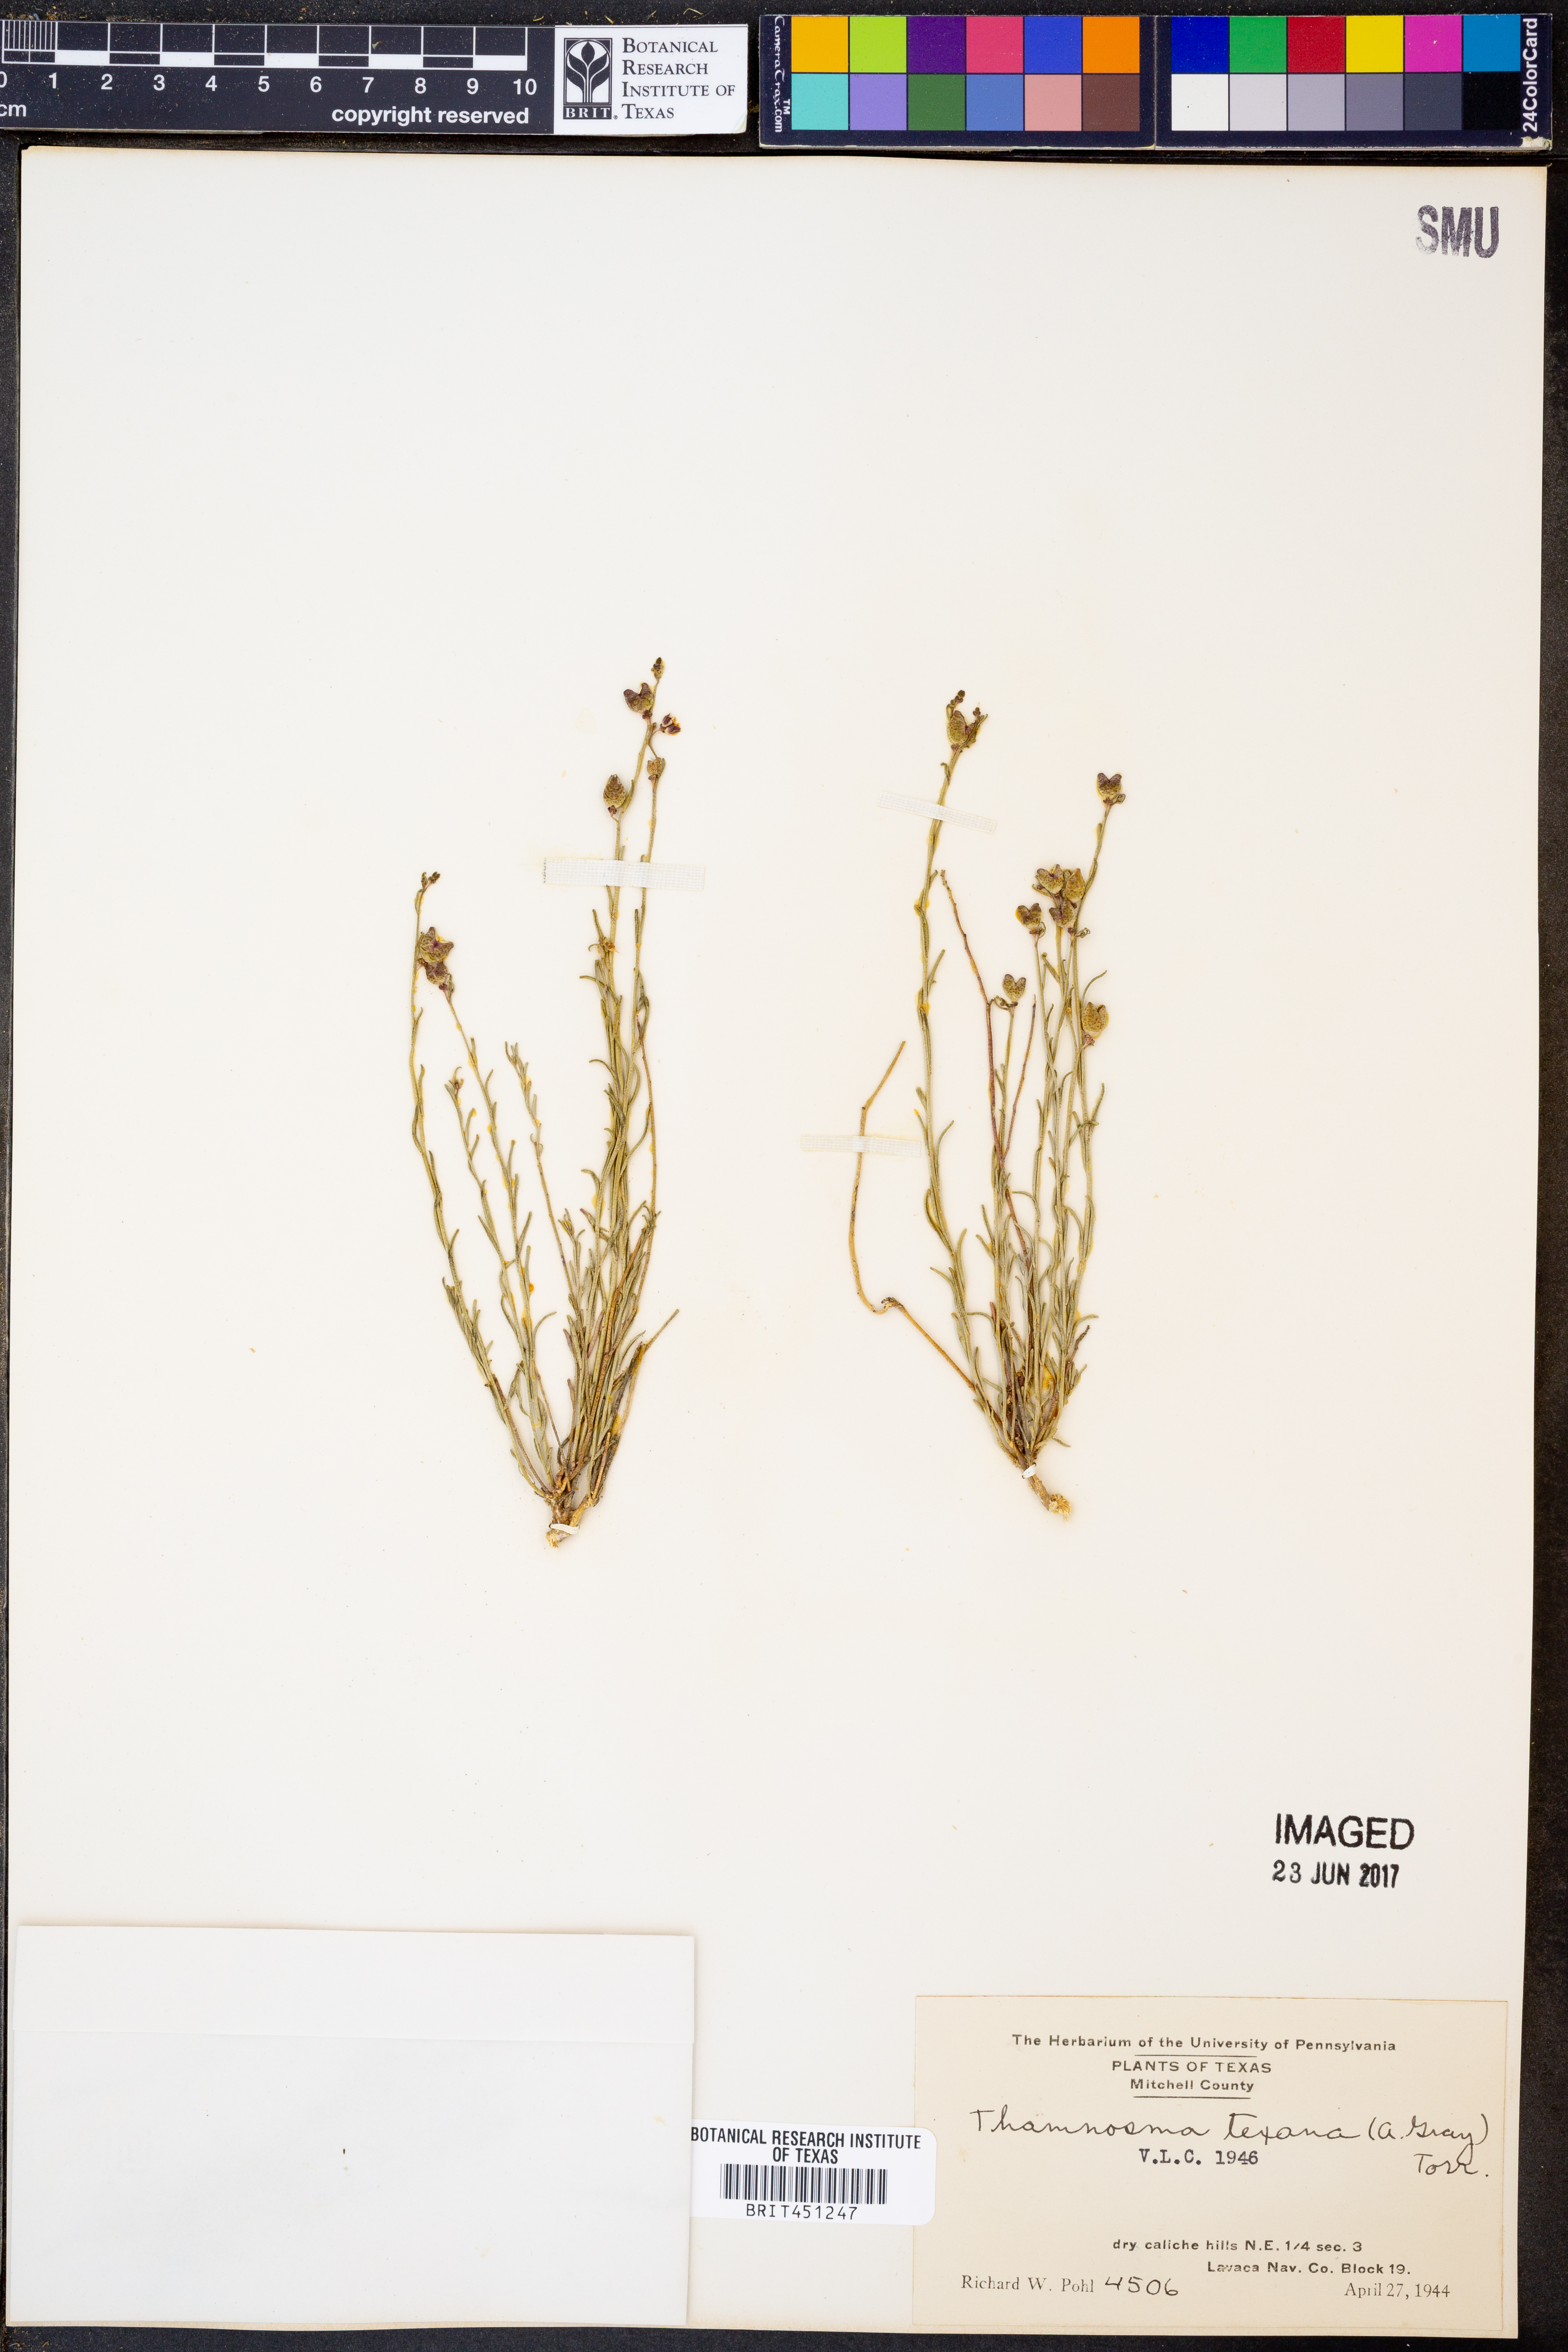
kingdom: Plantae
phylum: Tracheophyta
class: Magnoliopsida
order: Sapindales
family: Rutaceae
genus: Thamnosma
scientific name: Thamnosma texana
